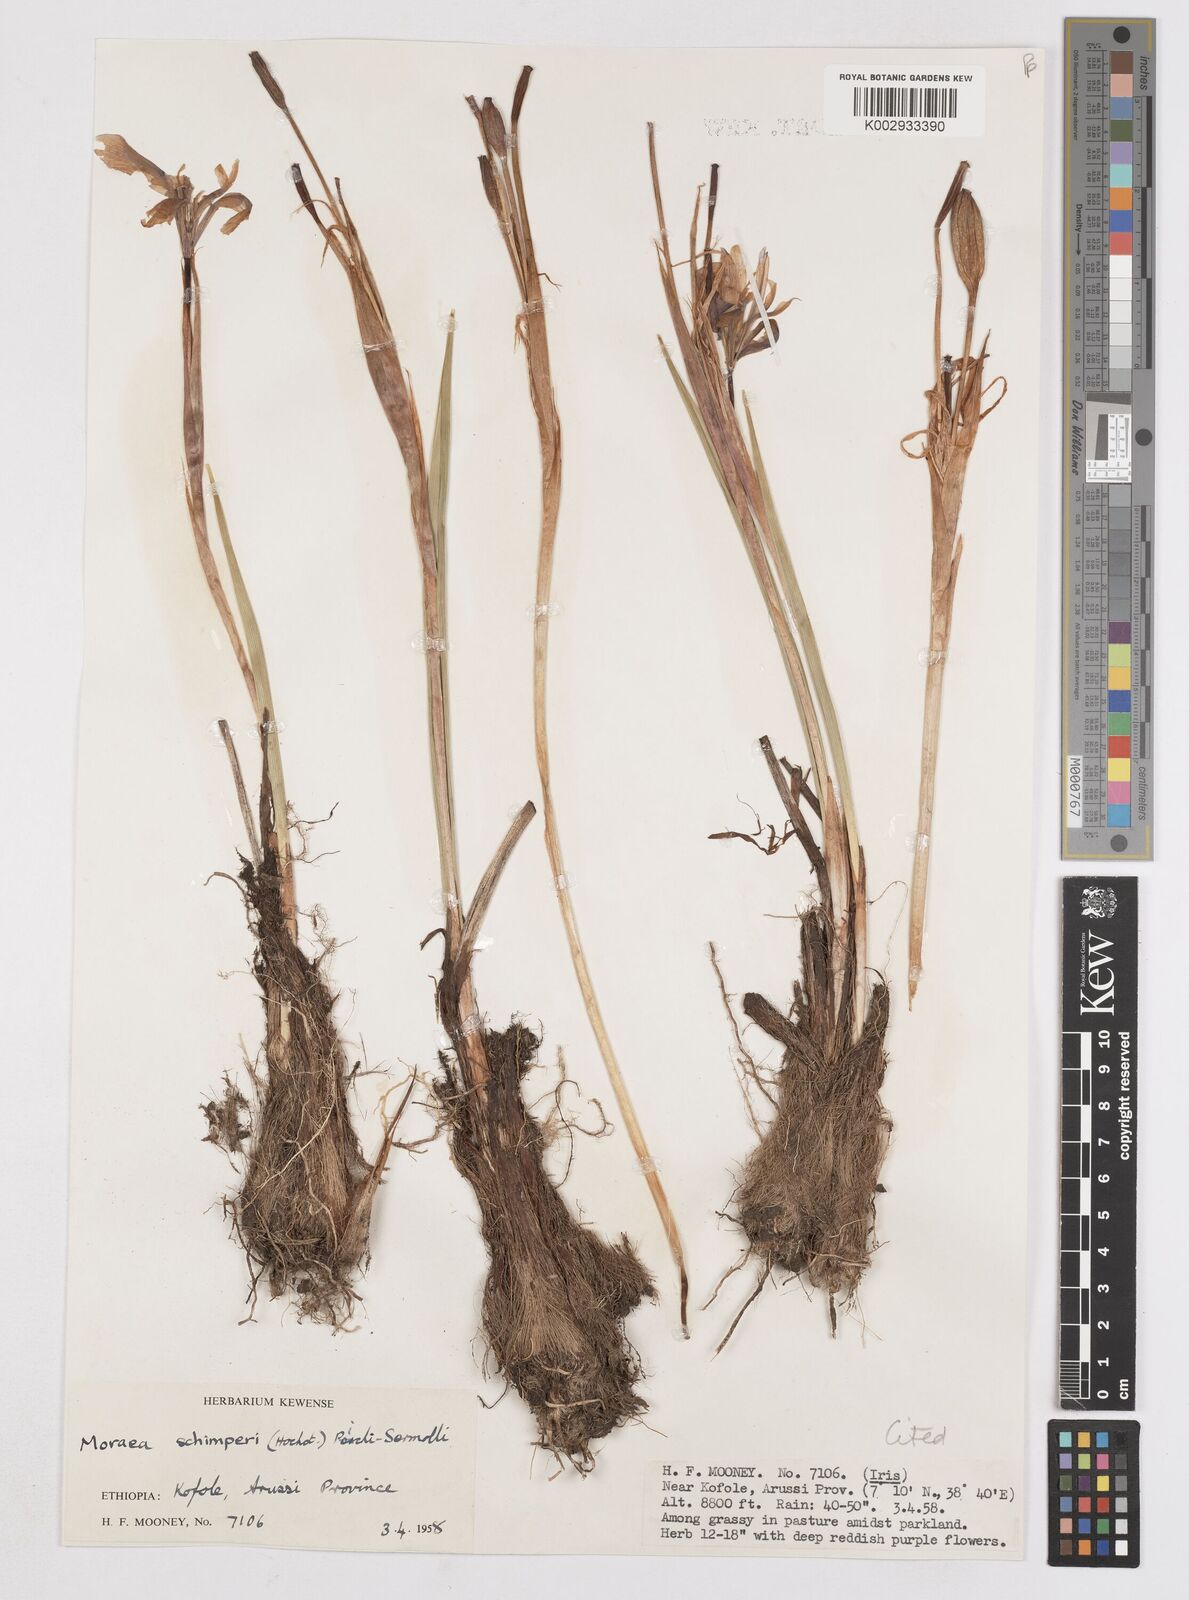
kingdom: Plantae
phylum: Tracheophyta
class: Liliopsida
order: Asparagales
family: Iridaceae
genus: Moraea
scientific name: Moraea schimperi
